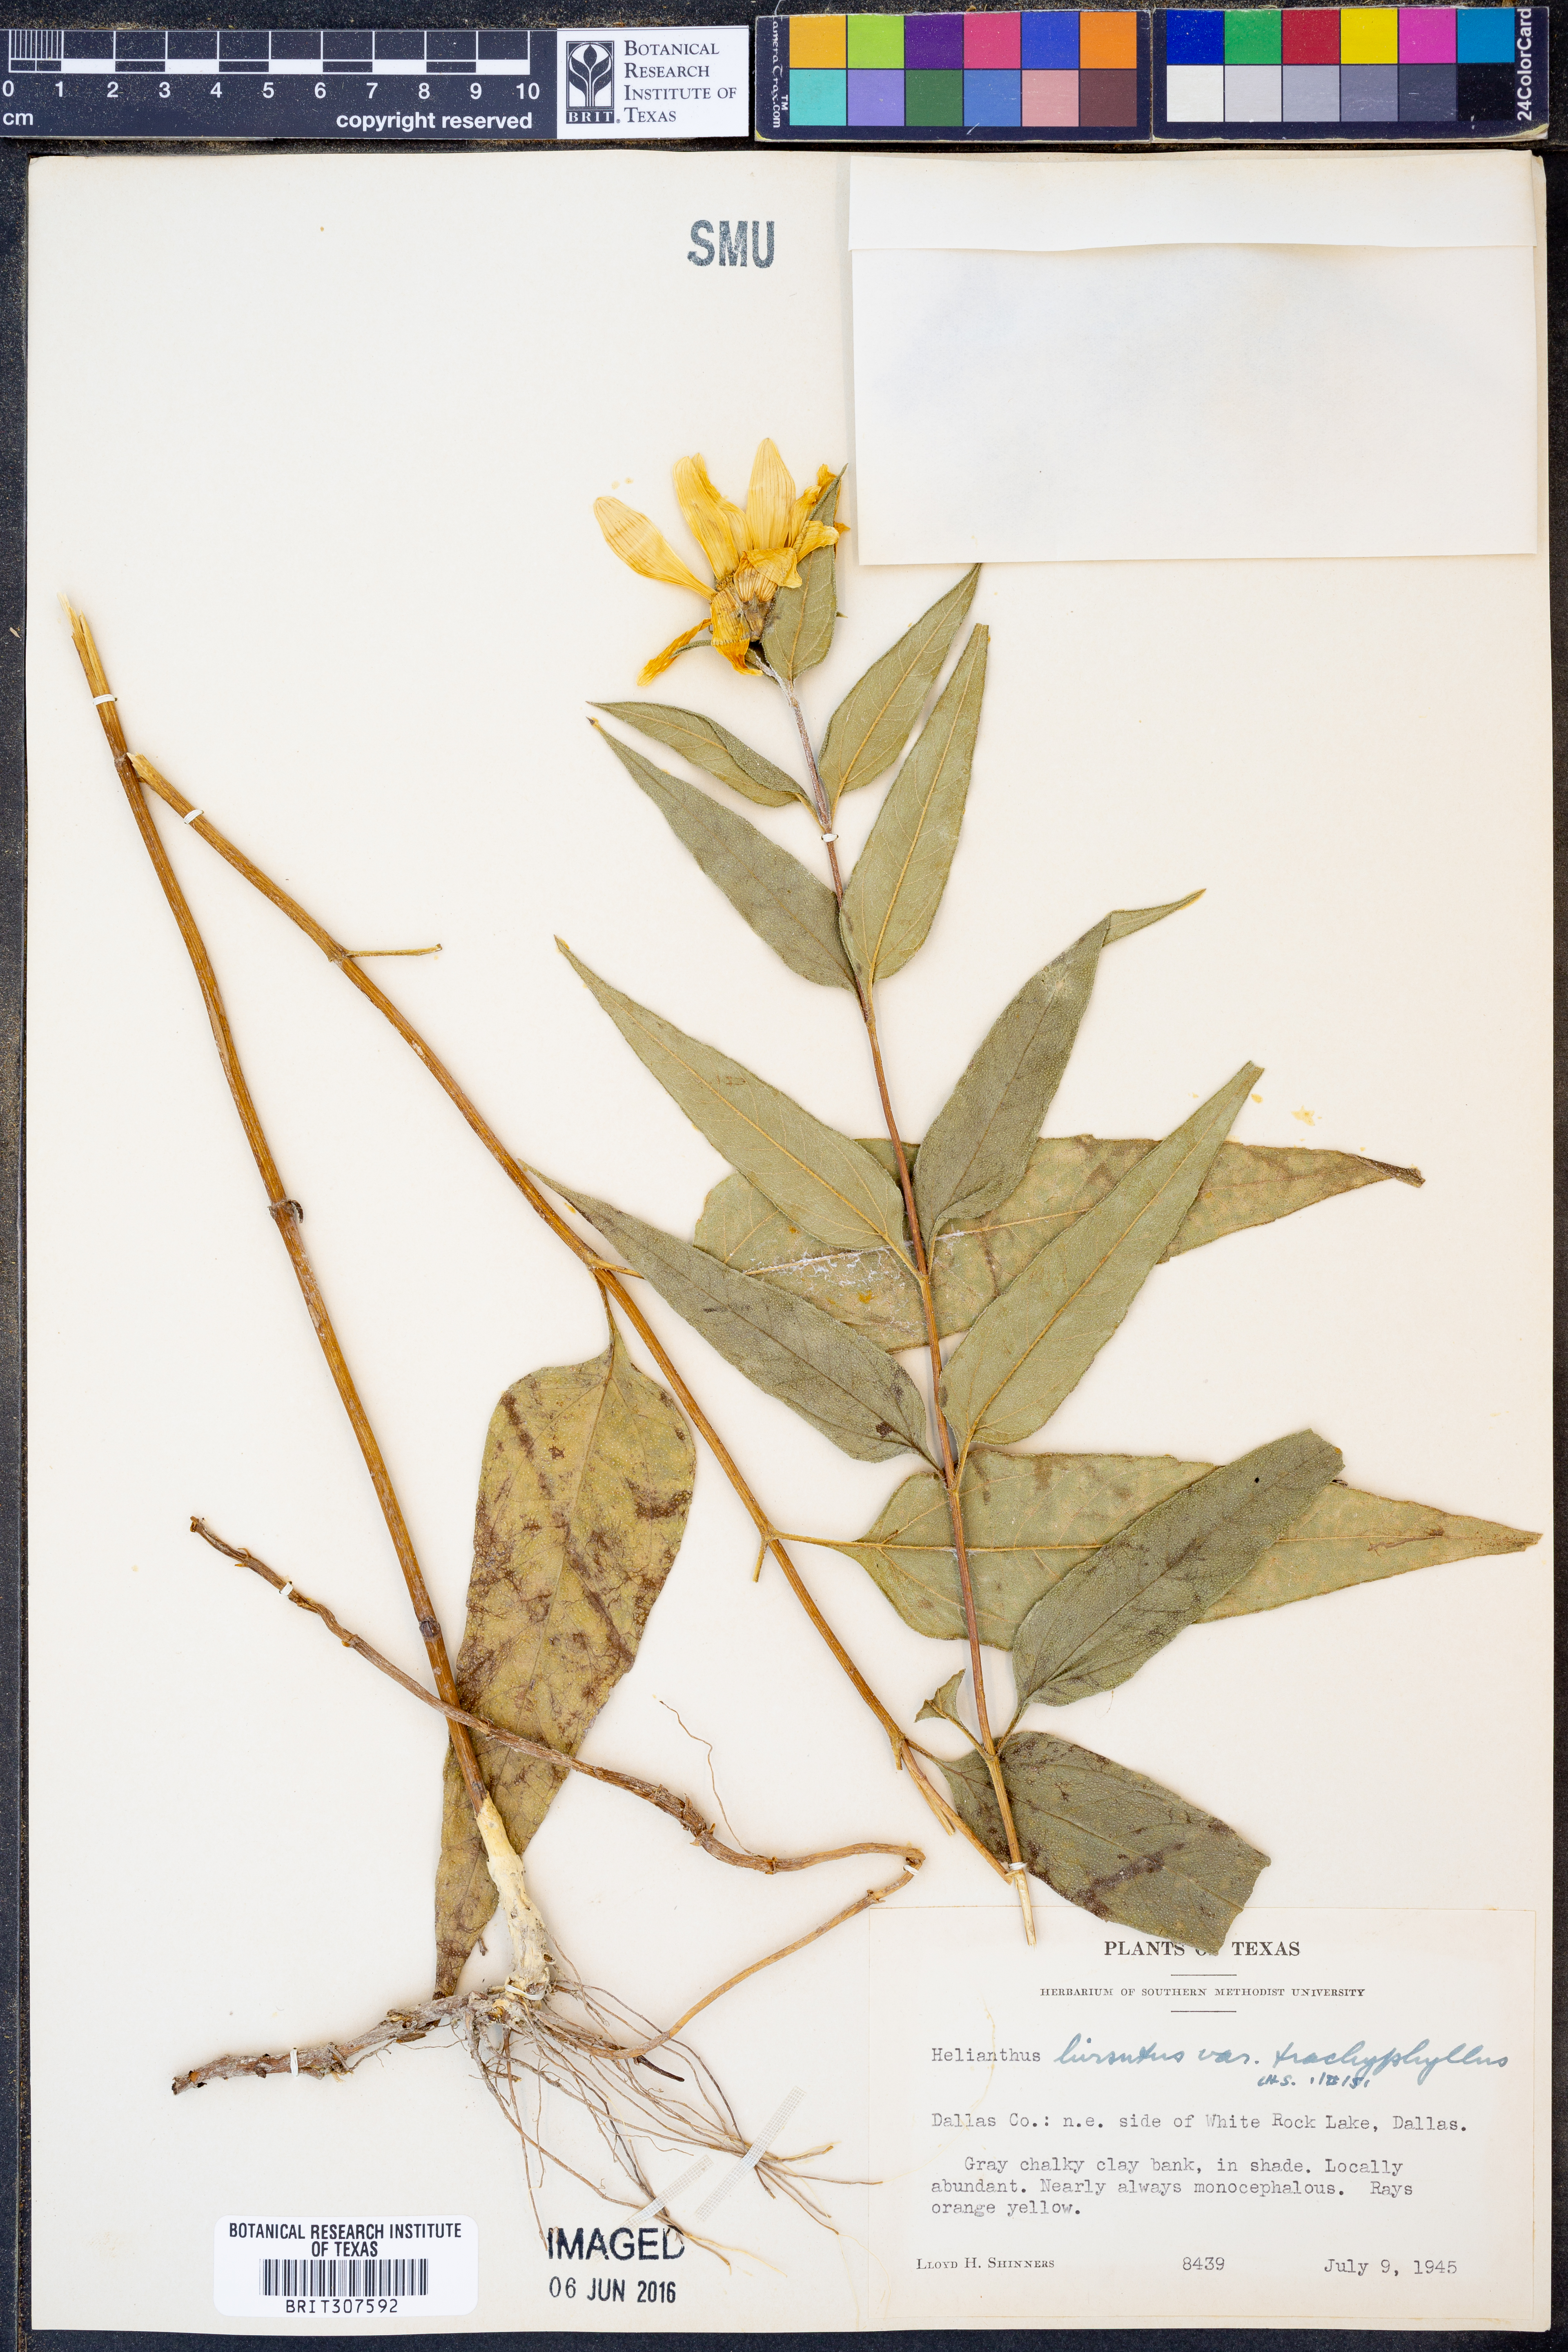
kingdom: Plantae
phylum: Tracheophyta
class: Magnoliopsida
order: Asterales
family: Asteraceae
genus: Helianthus
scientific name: Helianthus hirsutus
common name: Hairy sunflower
